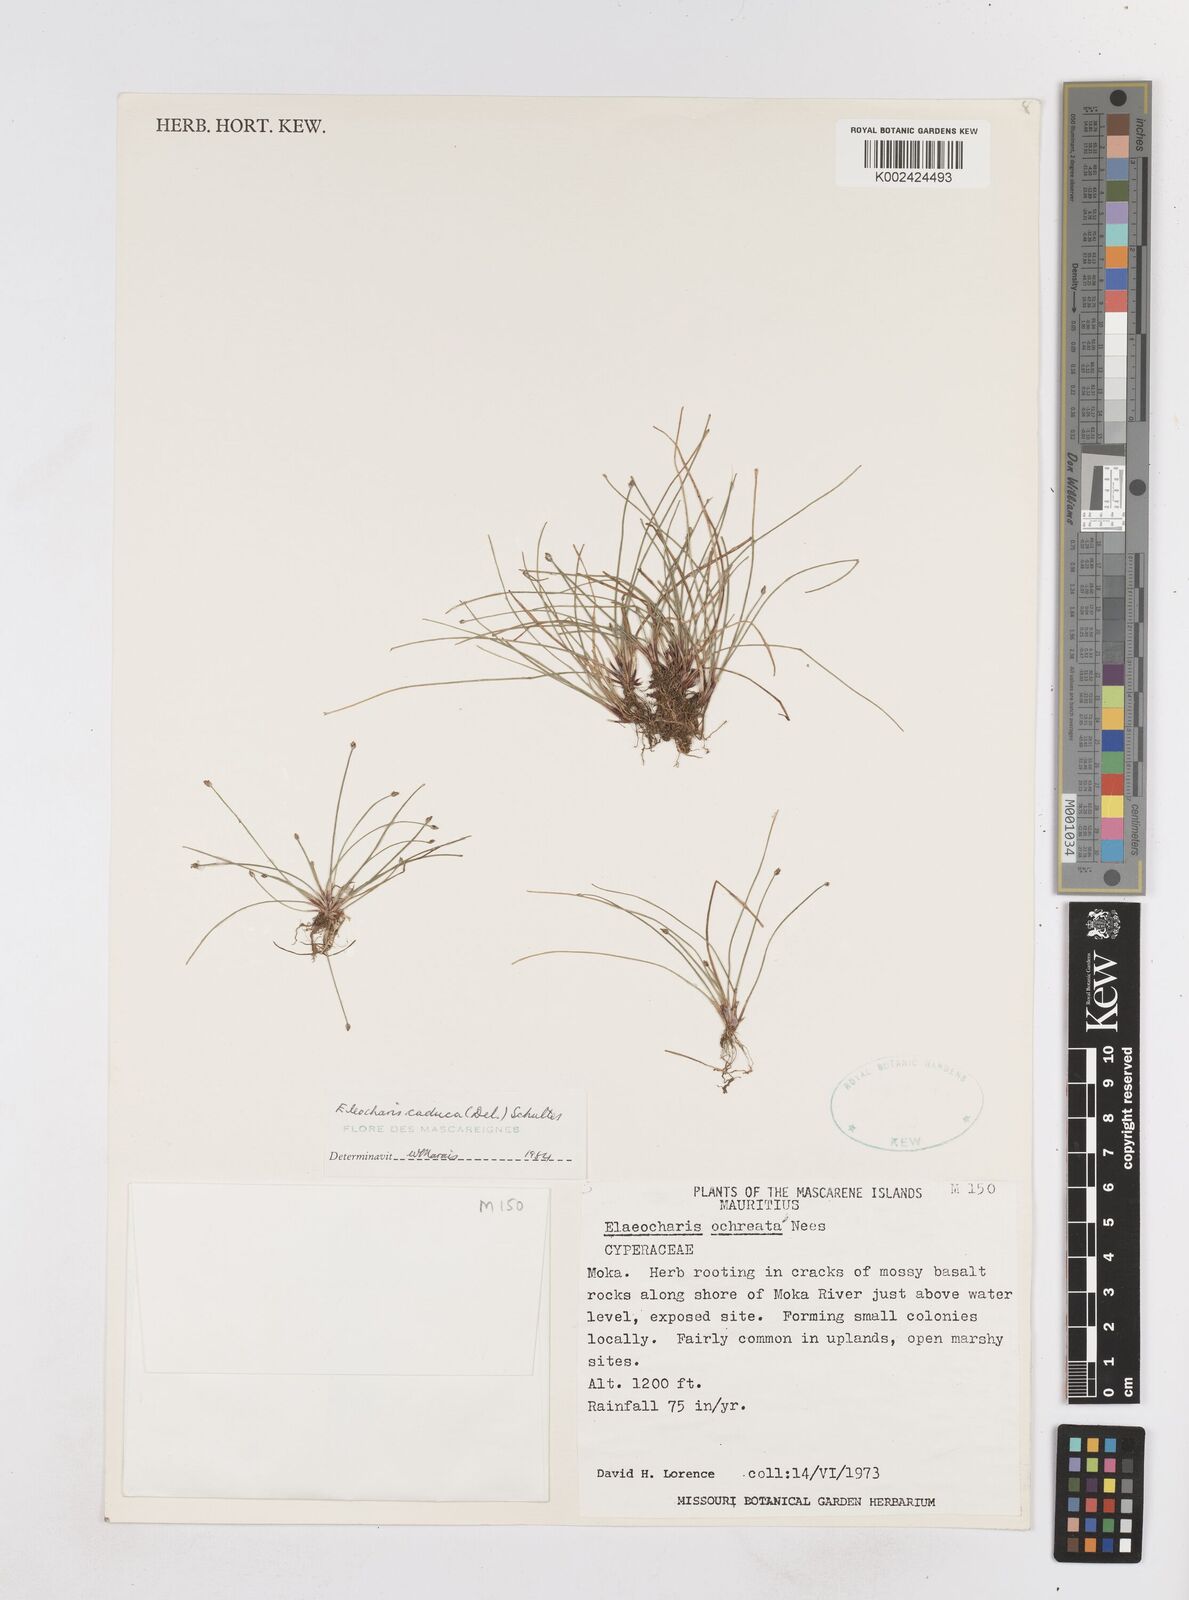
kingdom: Plantae
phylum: Tracheophyta
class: Liliopsida
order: Poales
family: Cyperaceae
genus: Eleocharis
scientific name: Eleocharis geniculata
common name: Canada spikesedge
